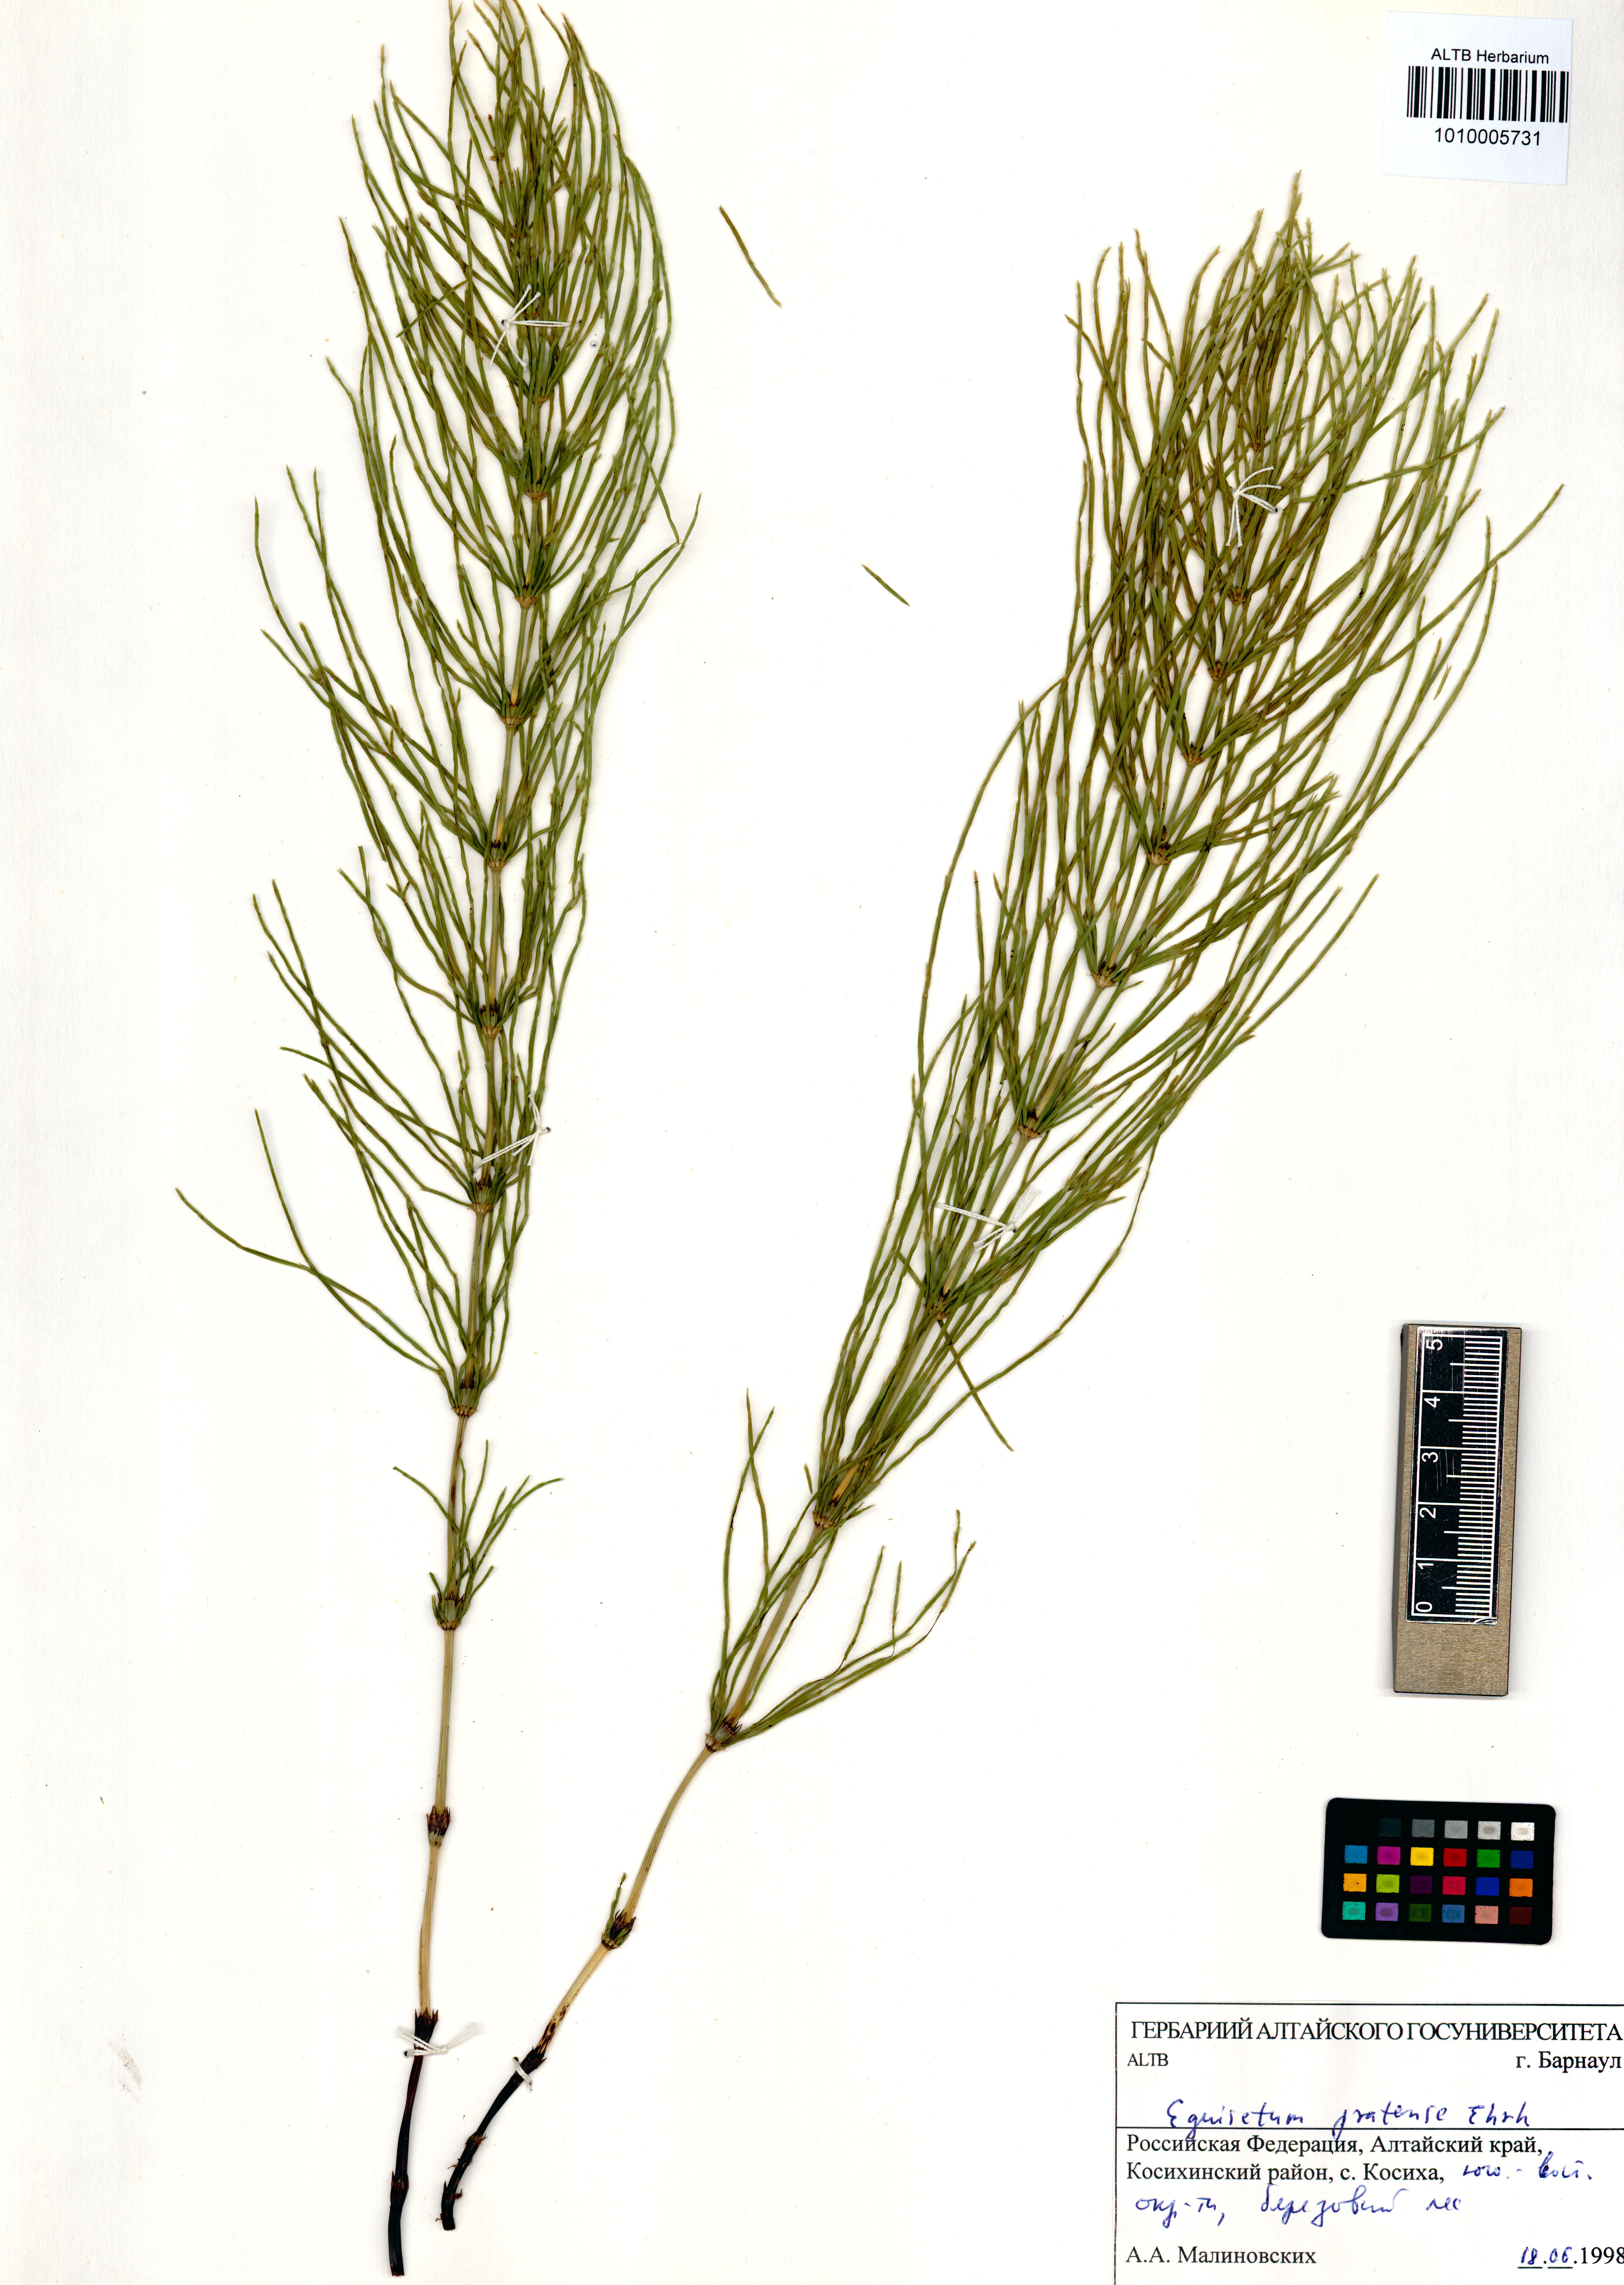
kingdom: Plantae
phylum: Tracheophyta
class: Polypodiopsida
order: Equisetales
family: Equisetaceae
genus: Equisetum
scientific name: Equisetum pratense
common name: Meadow horsetail
